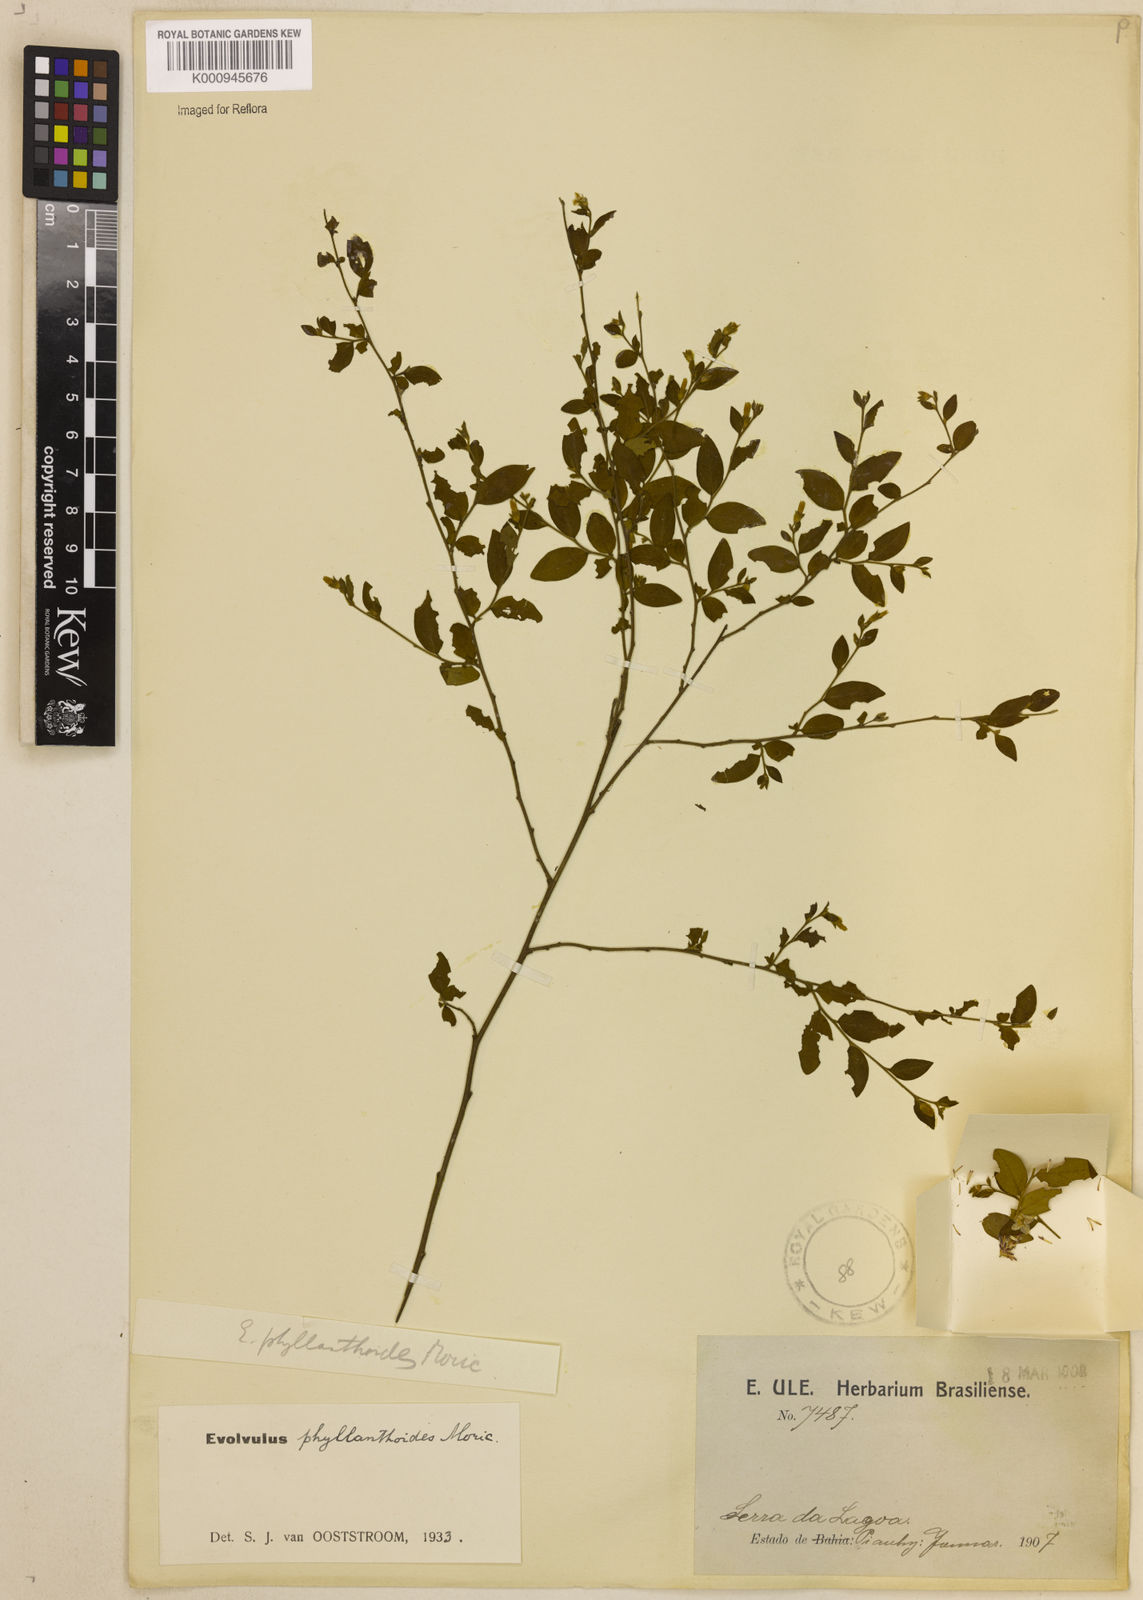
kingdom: Plantae
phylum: Tracheophyta
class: Magnoliopsida
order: Solanales
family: Convolvulaceae
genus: Evolvulus
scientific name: Evolvulus phyllanthoides
